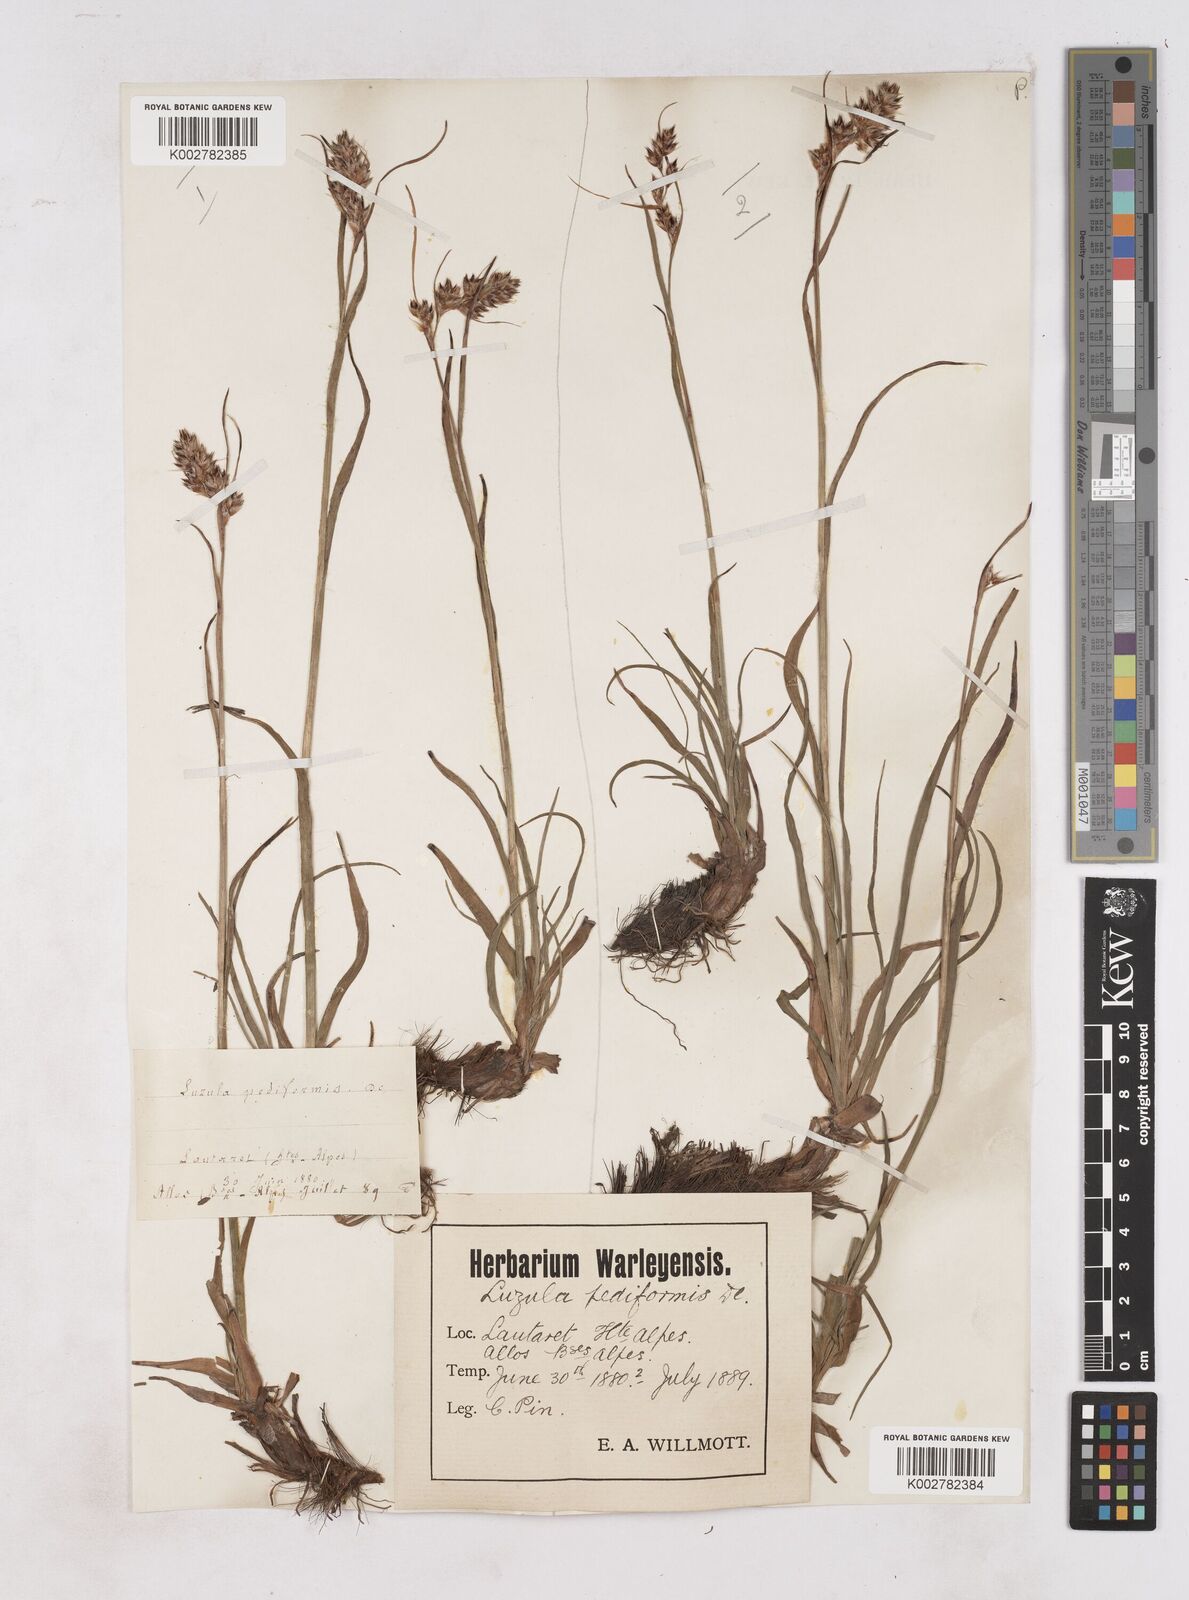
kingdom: Plantae
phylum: Tracheophyta
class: Liliopsida
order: Poales
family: Juncaceae
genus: Luzula
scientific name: Luzula pediformis
